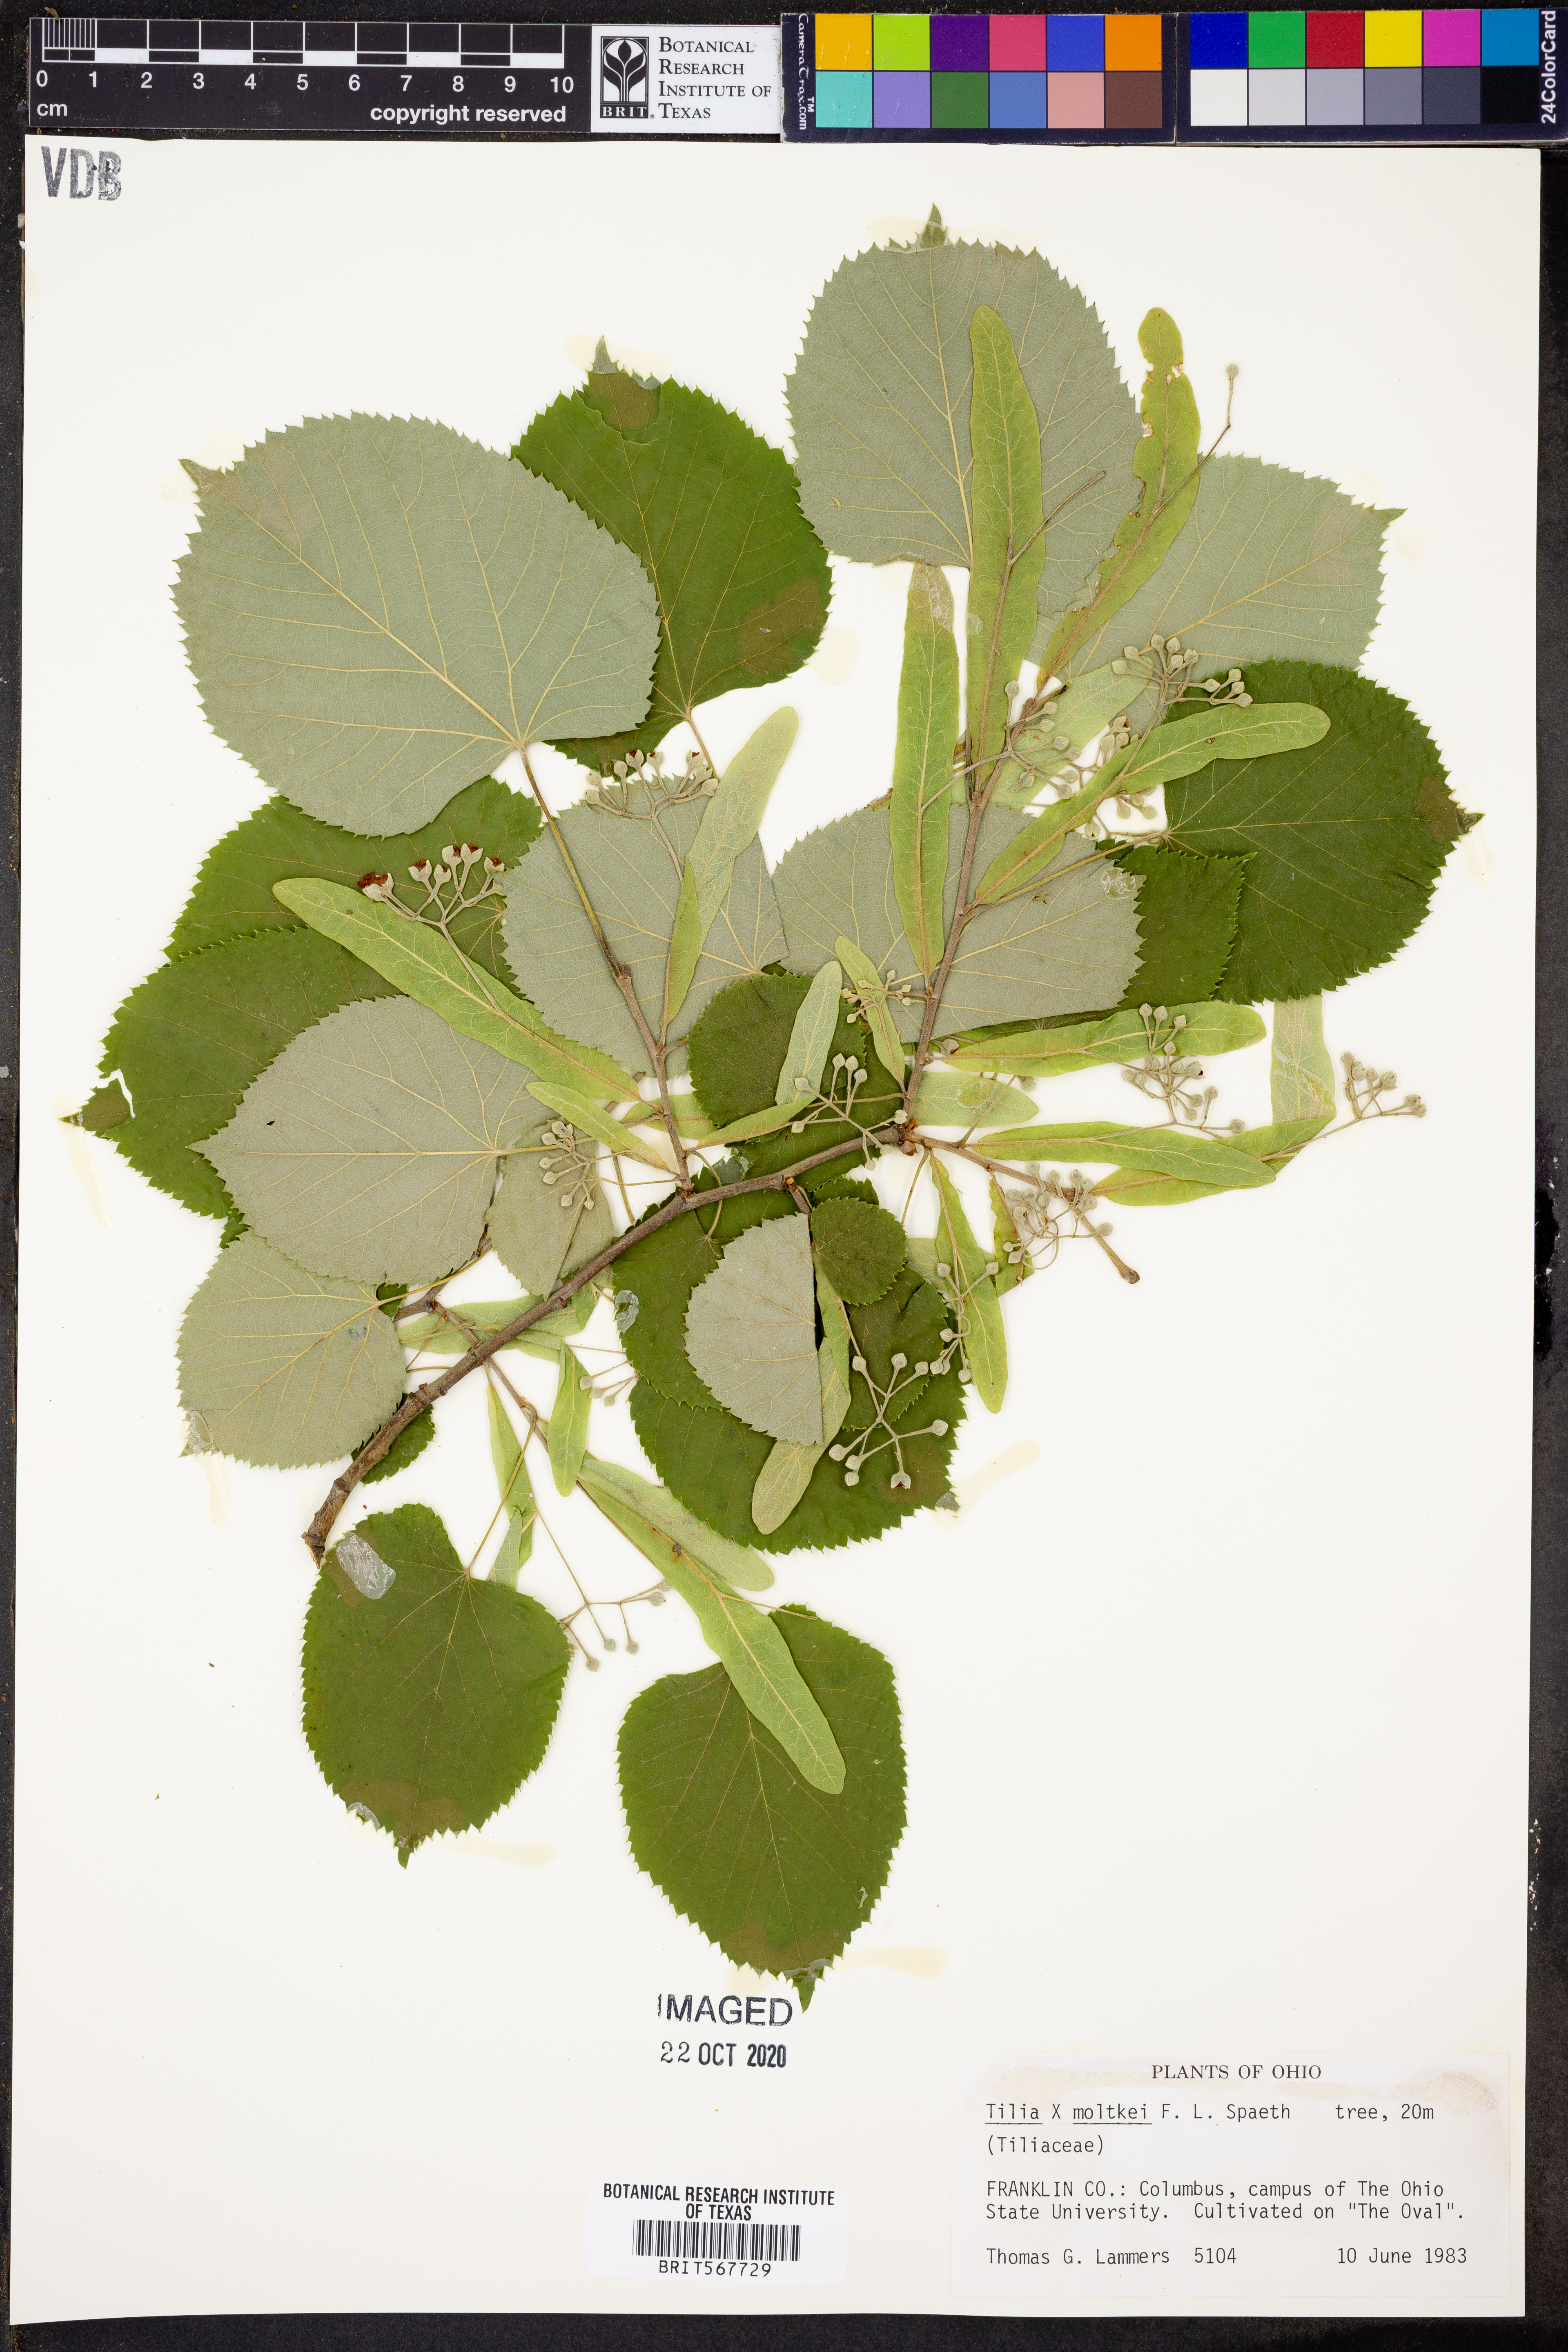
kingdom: Plantae
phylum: Tracheophyta
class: Magnoliopsida
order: Malvales
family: Malvaceae
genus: Tilia
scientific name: Tilia moltkei
